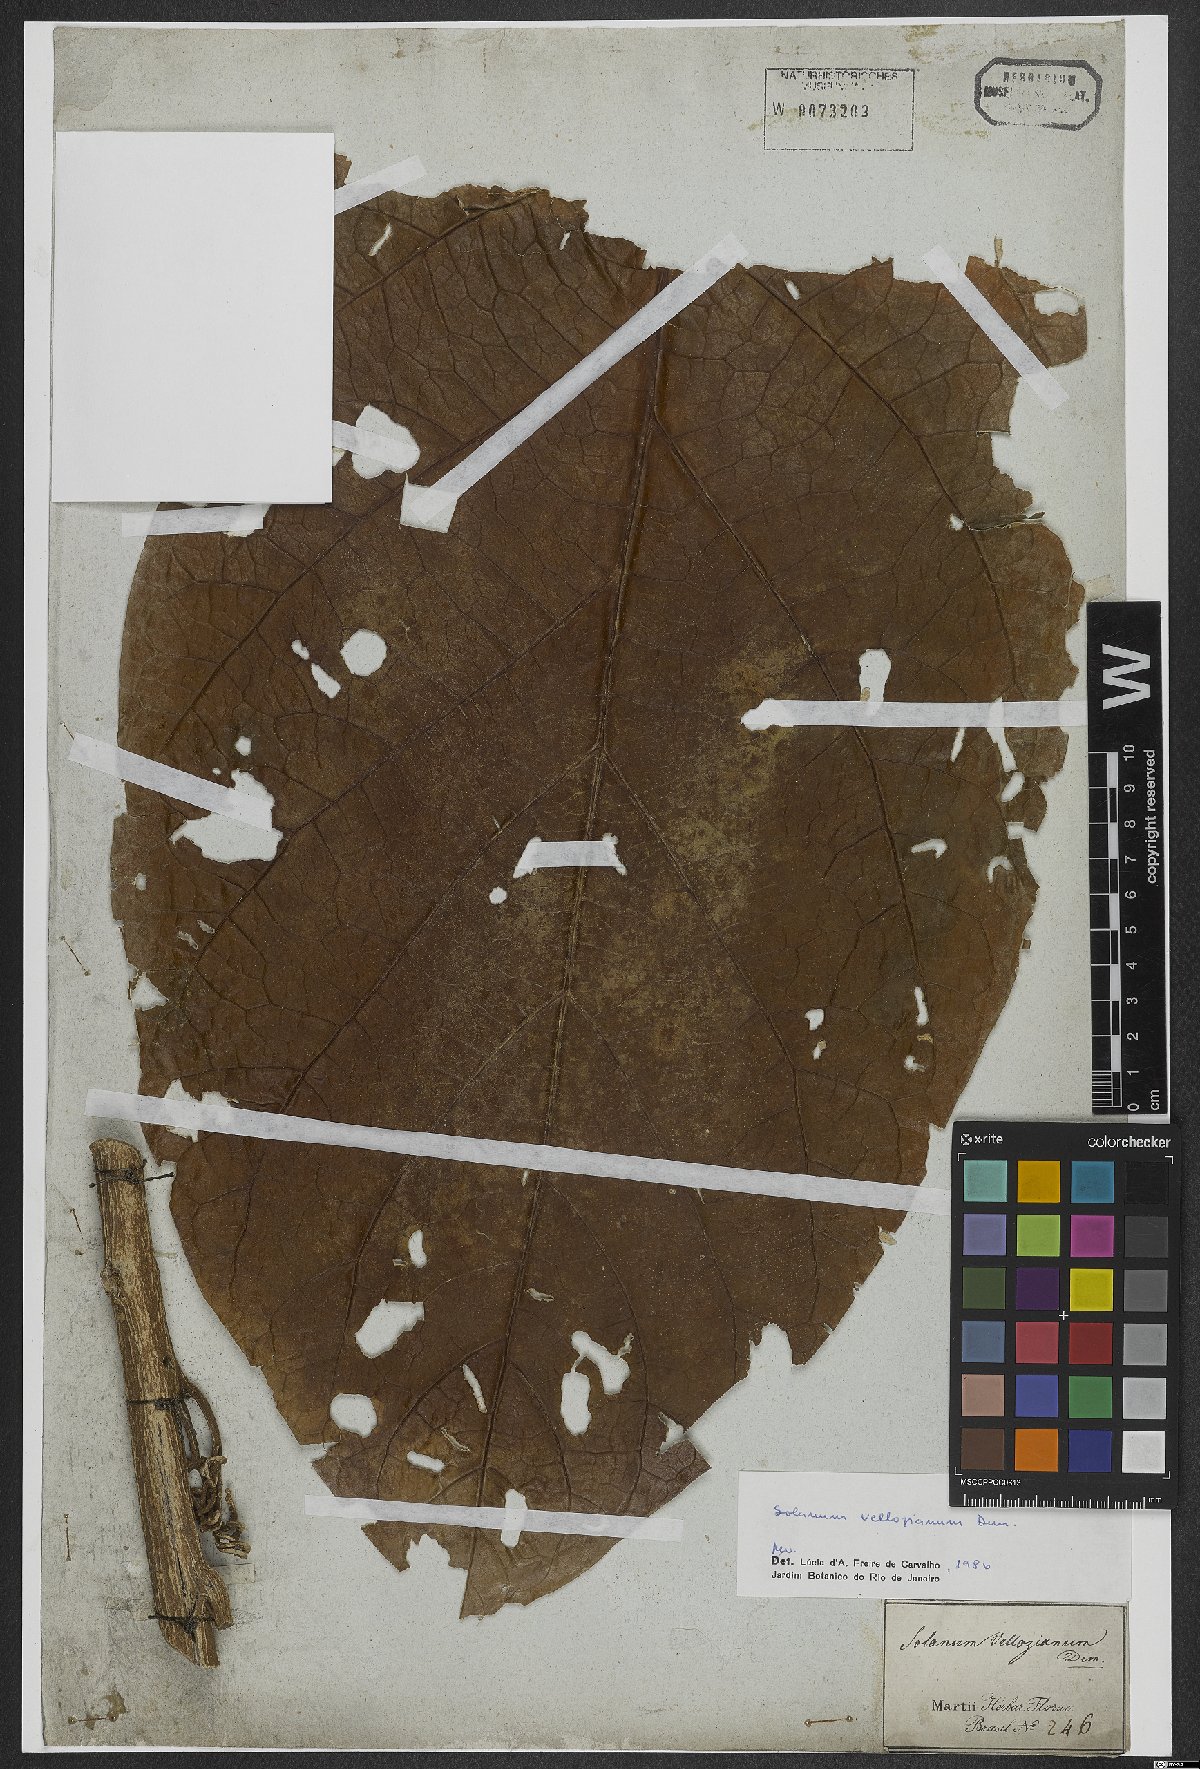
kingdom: Plantae
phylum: Tracheophyta
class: Magnoliopsida
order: Solanales
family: Solanaceae
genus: Solanum
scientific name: Solanum vellozianum
